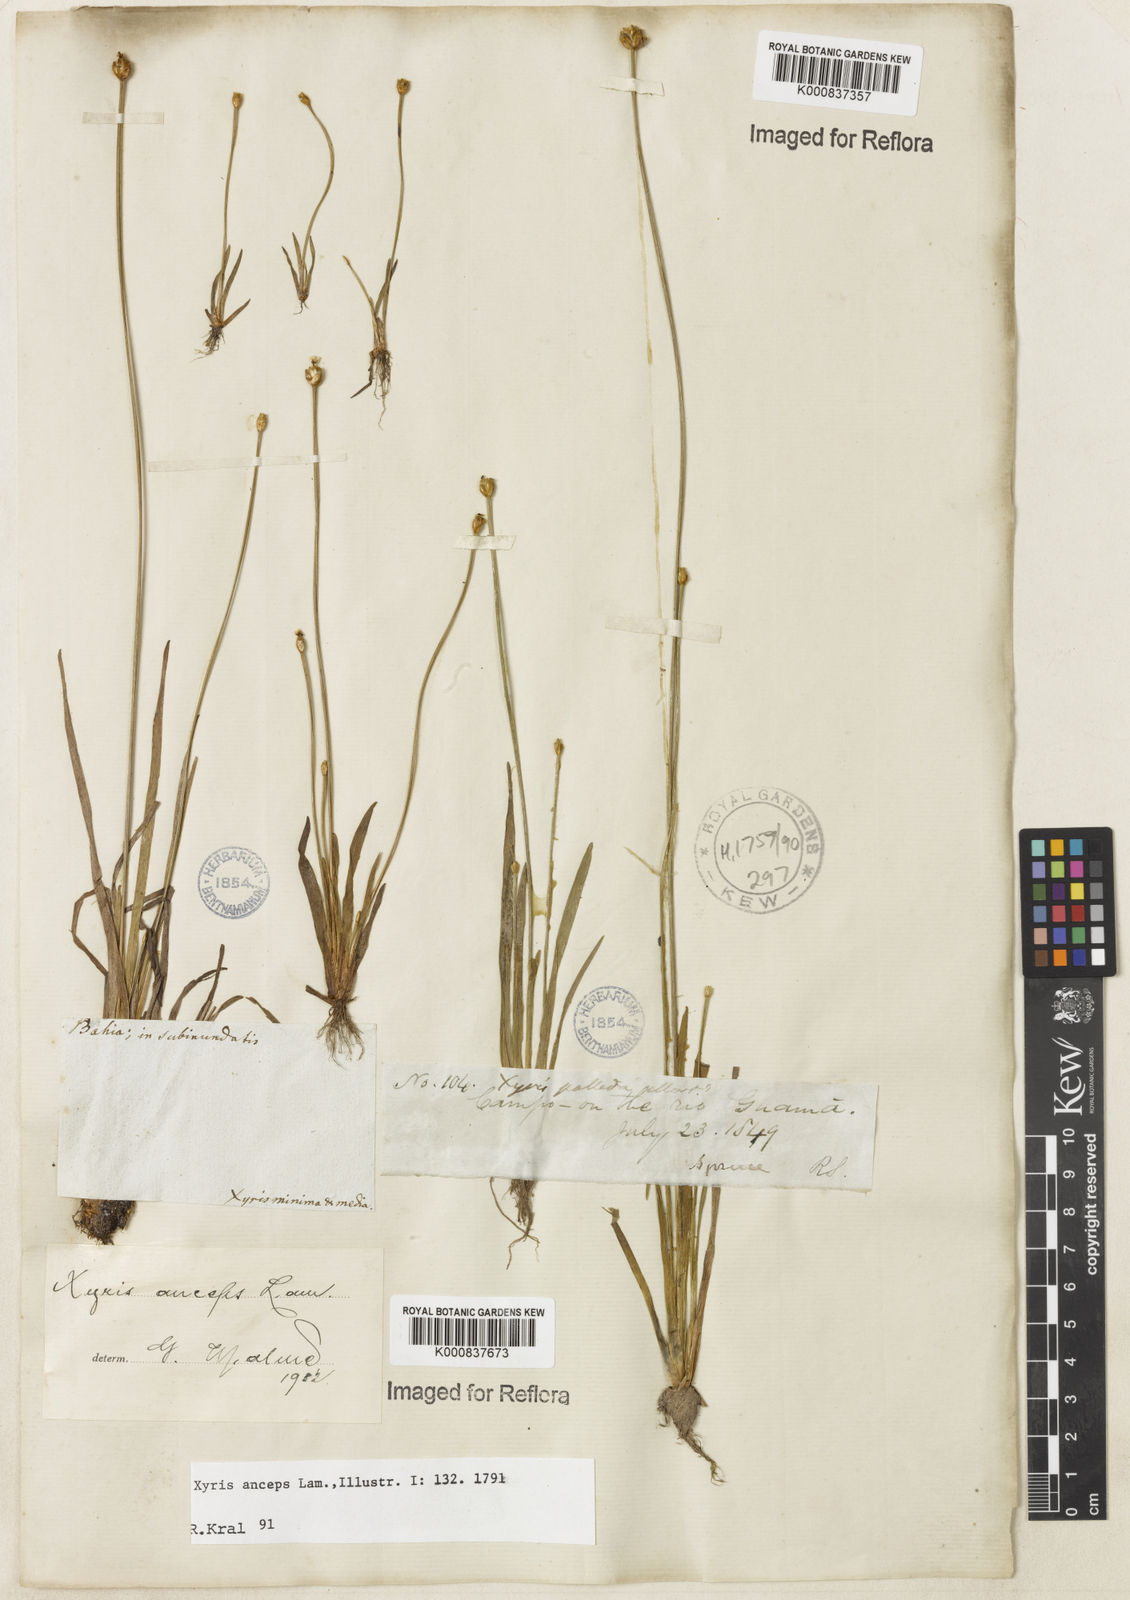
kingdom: Plantae
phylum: Tracheophyta
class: Liliopsida
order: Poales
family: Xyridaceae
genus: Xyris
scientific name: Xyris
